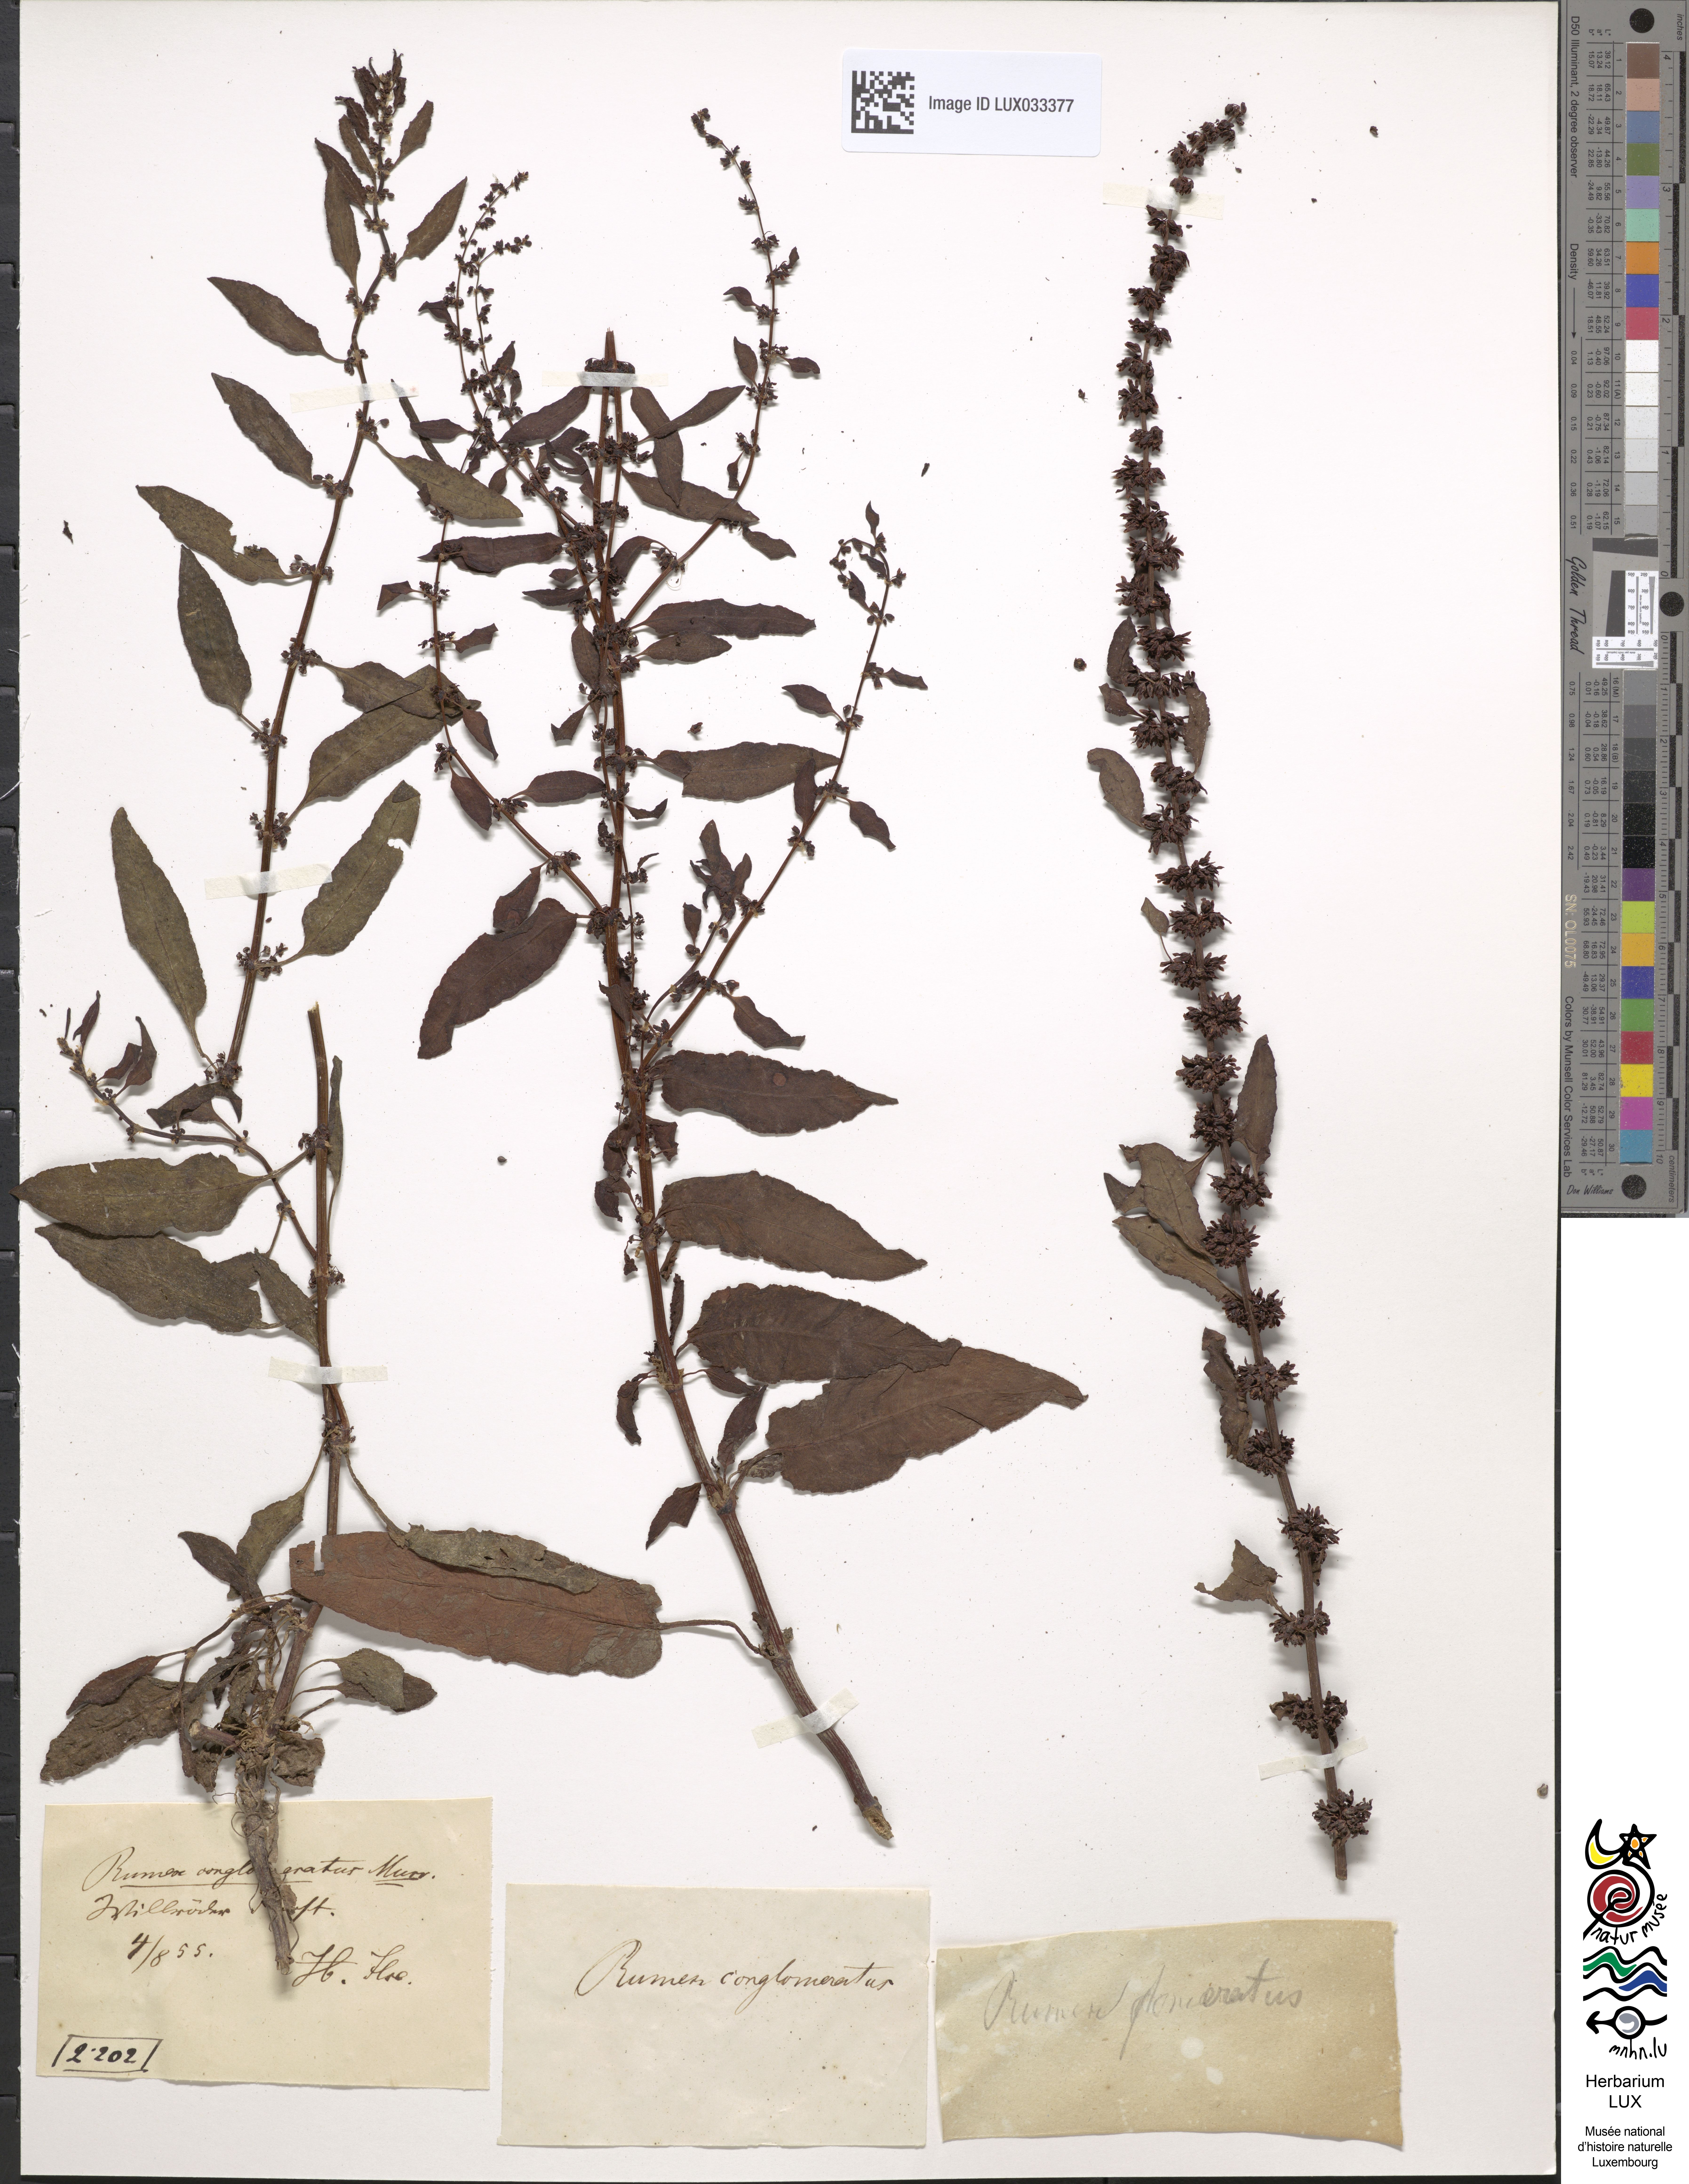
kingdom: Plantae
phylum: Tracheophyta
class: Magnoliopsida
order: Caryophyllales
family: Polygonaceae
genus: Rumex
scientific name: Rumex conglomeratus
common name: Clustered dock
